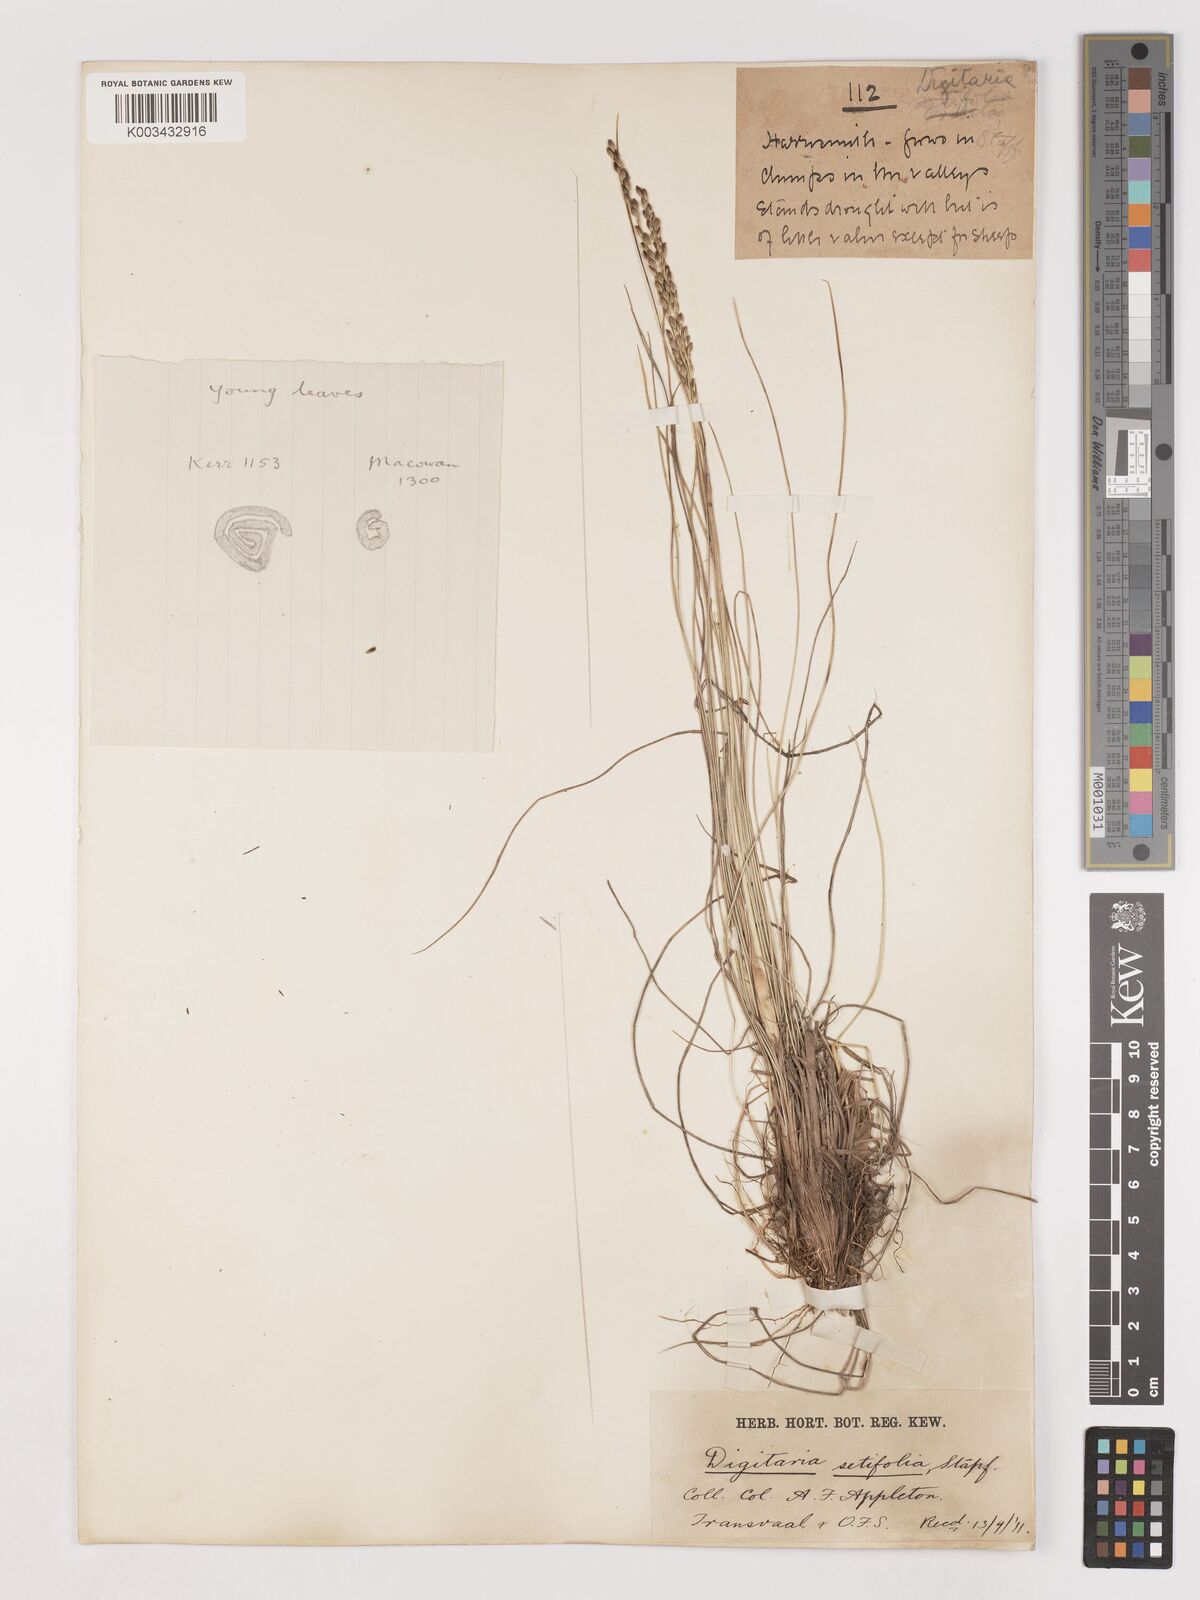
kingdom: Plantae
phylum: Tracheophyta
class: Liliopsida
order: Poales
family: Poaceae
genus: Digitaria
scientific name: Digitaria setifolia
